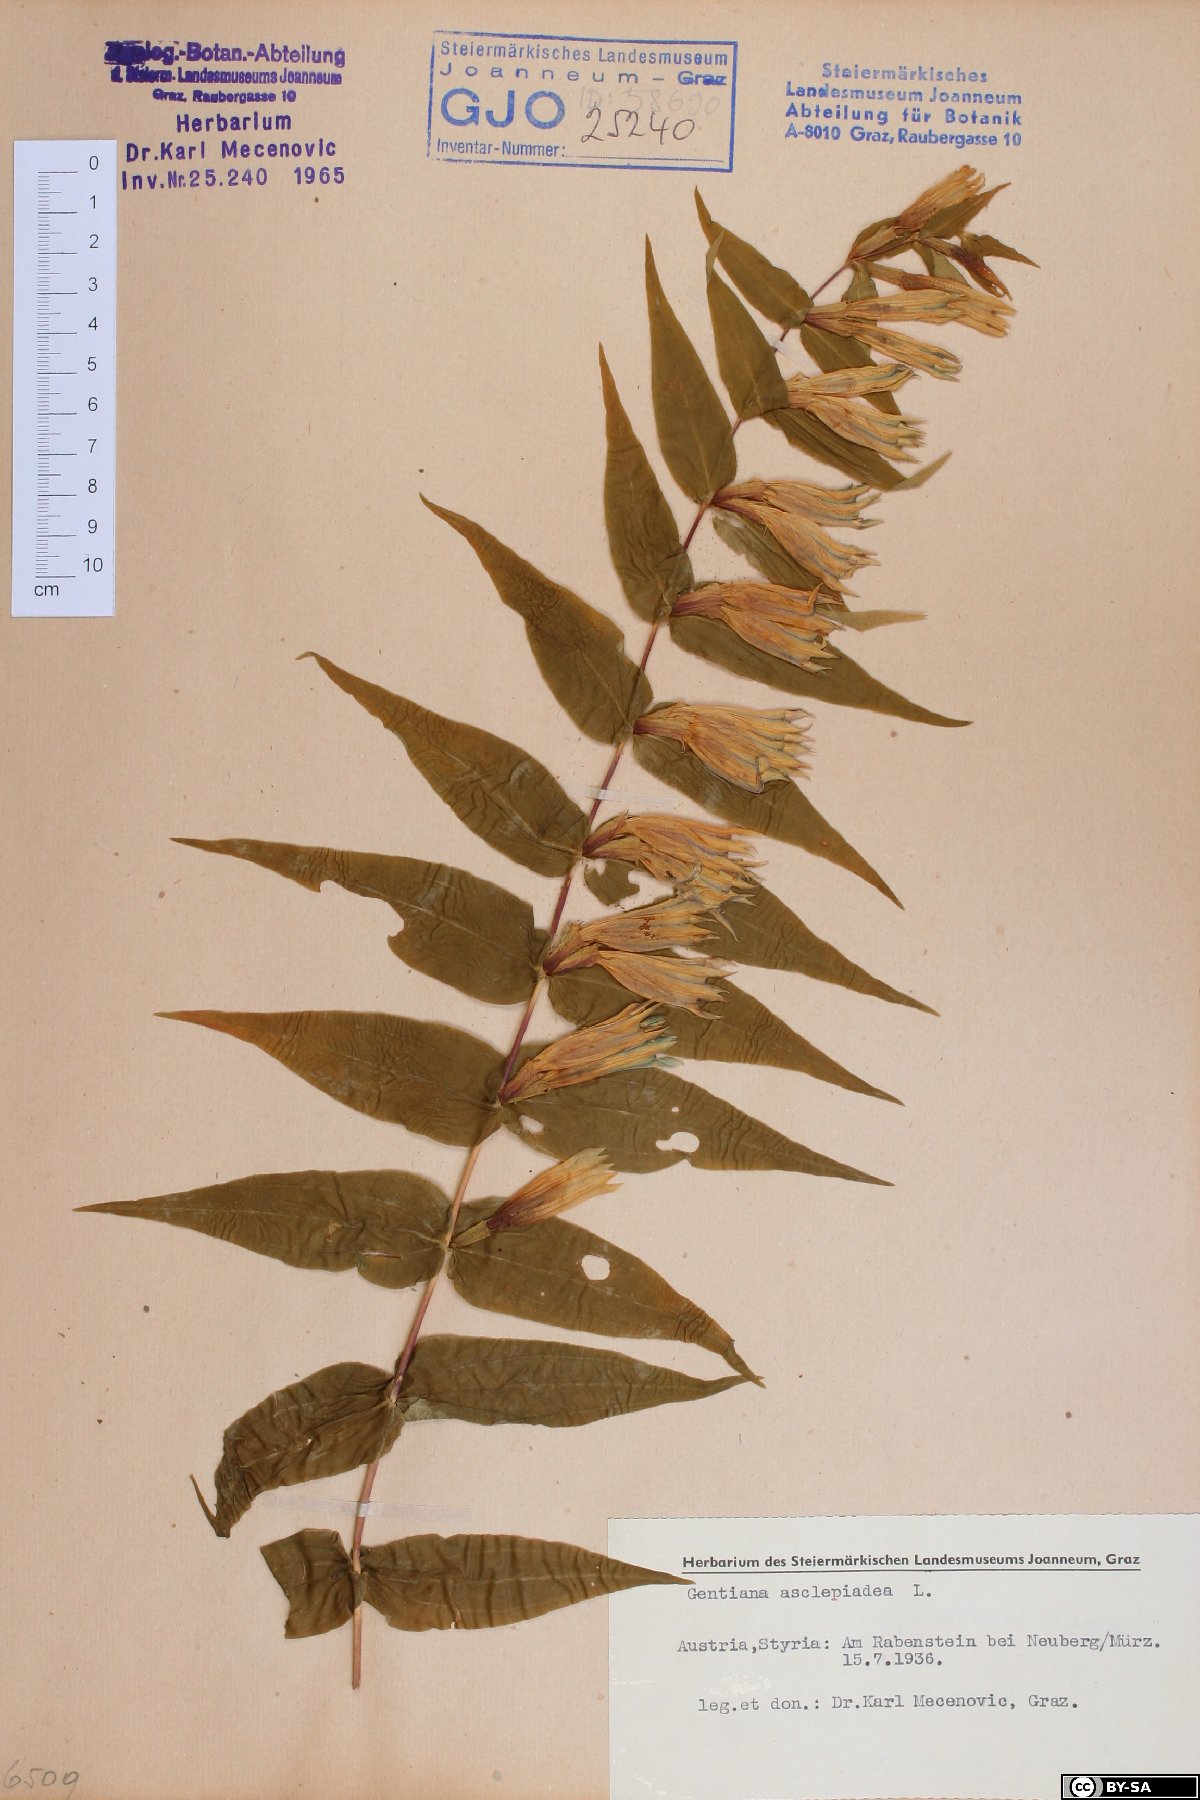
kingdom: Plantae
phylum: Tracheophyta
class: Magnoliopsida
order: Gentianales
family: Gentianaceae
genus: Gentiana
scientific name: Gentiana asclepiadea
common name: Willow gentian
